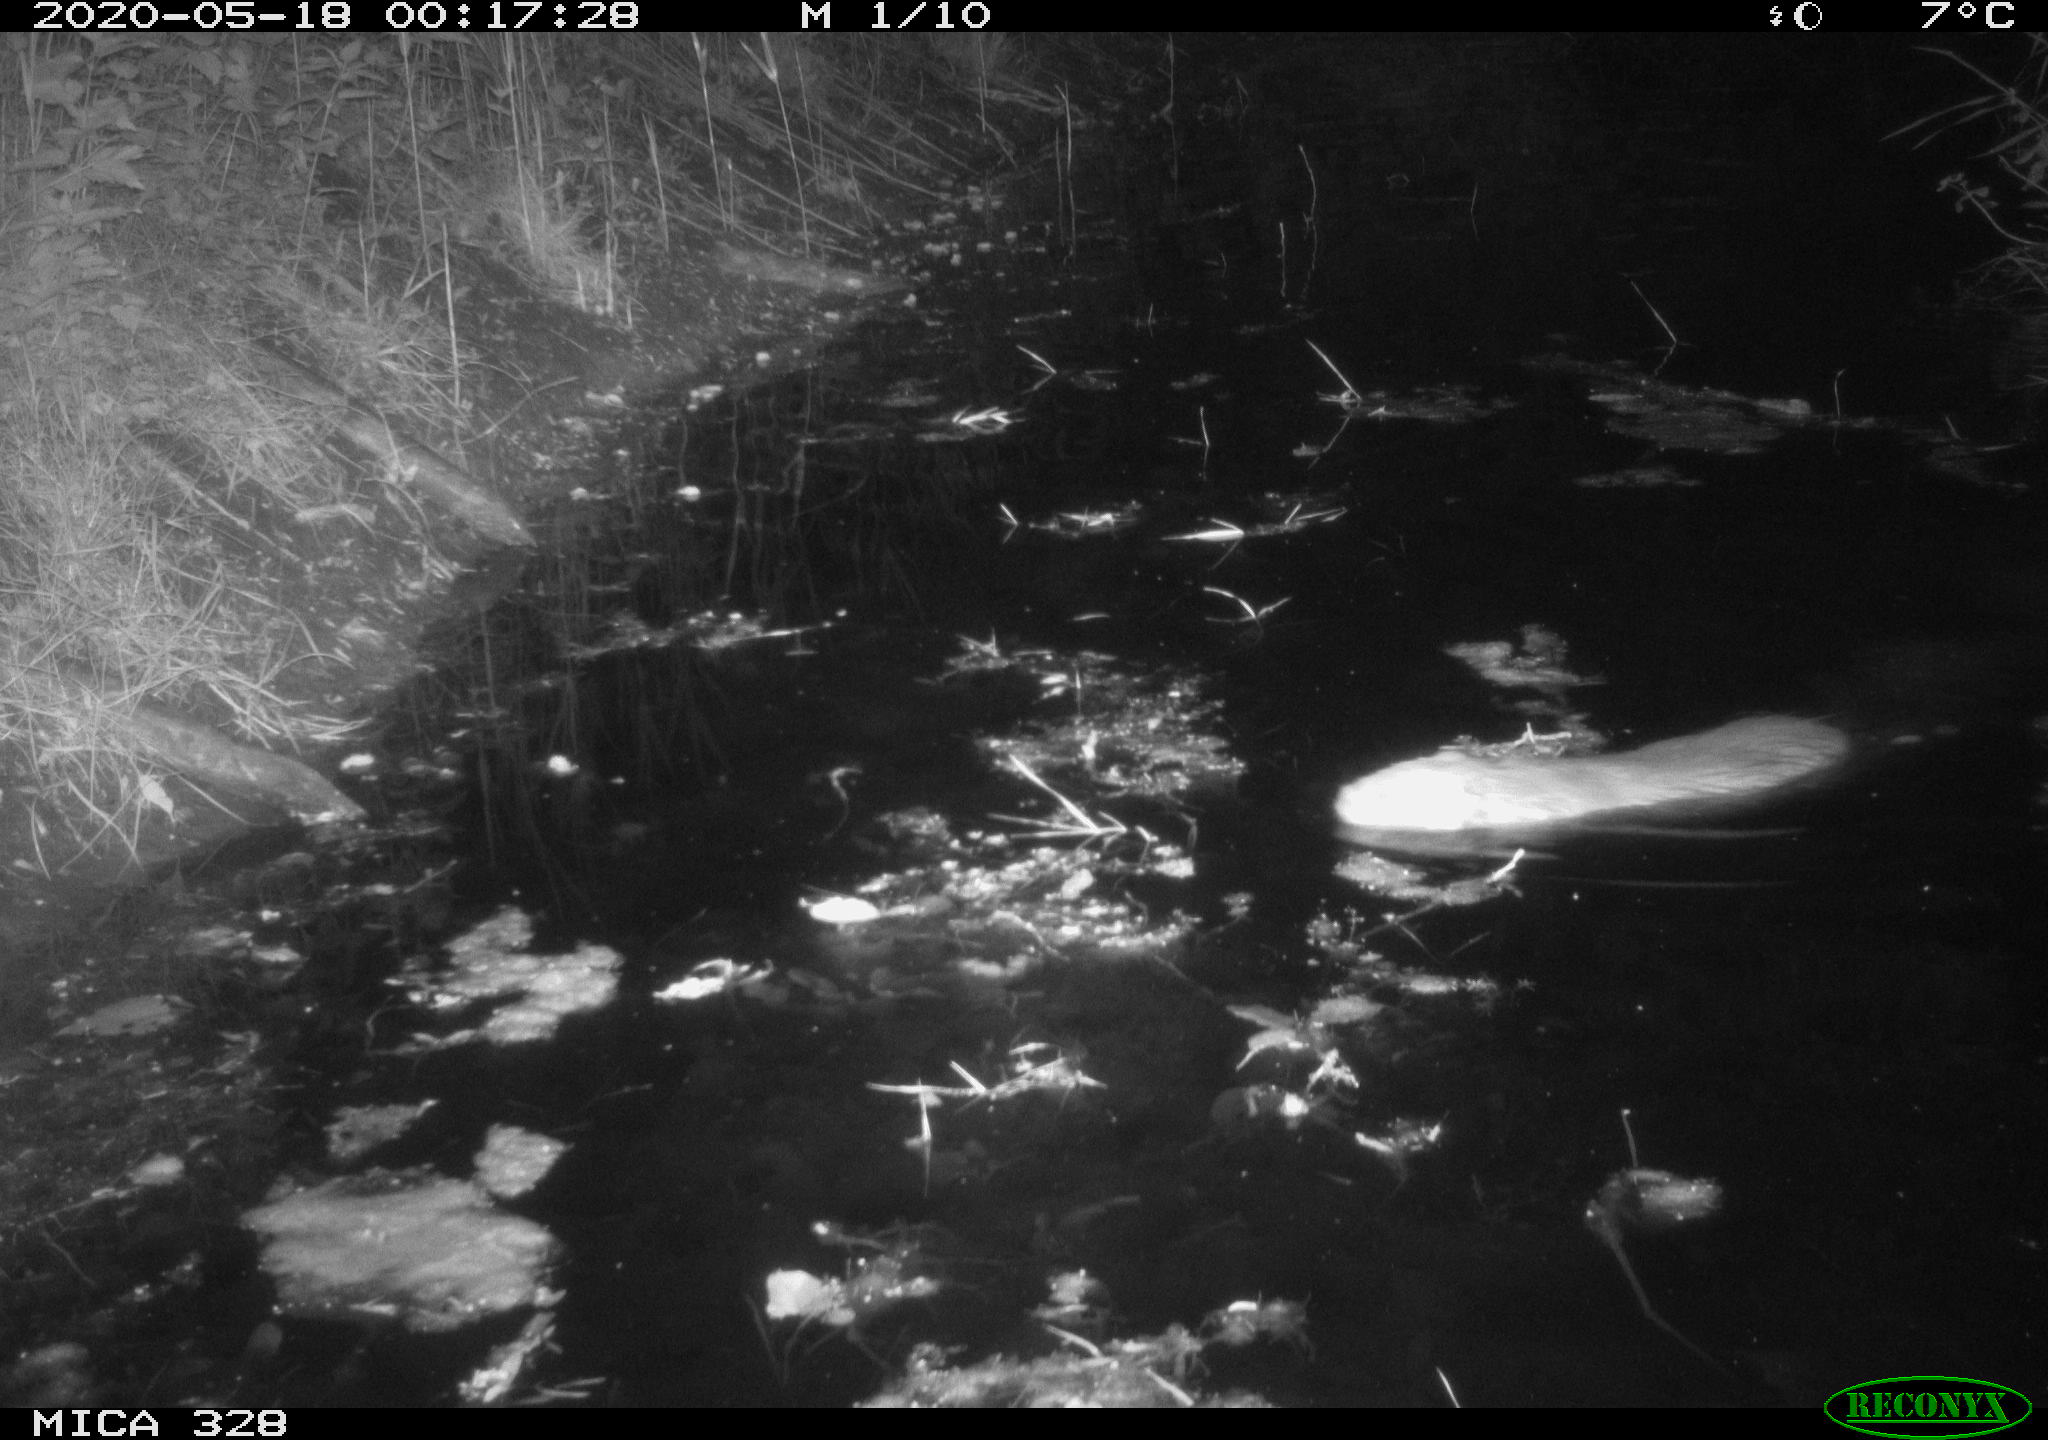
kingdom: Animalia
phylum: Chordata
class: Mammalia
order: Rodentia
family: Myocastoridae
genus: Myocastor
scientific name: Myocastor coypus
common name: Coypu
